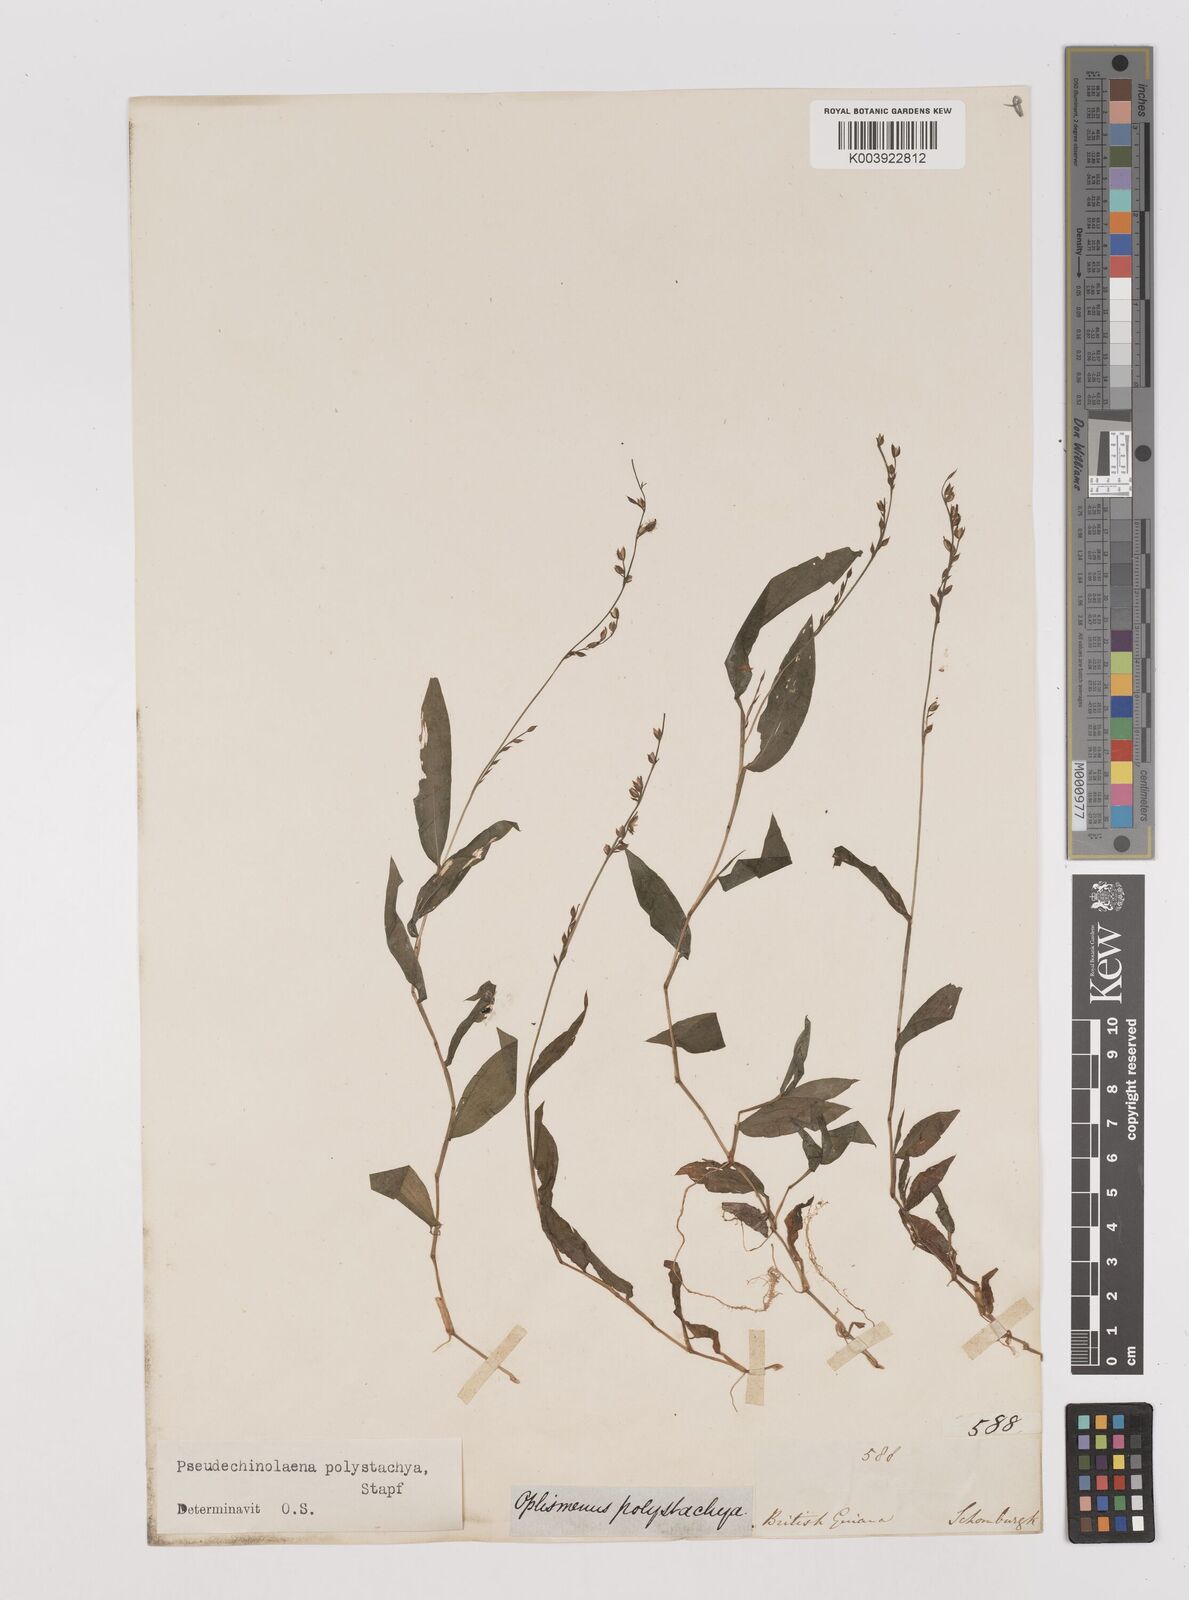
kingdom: Plantae
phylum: Tracheophyta
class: Liliopsida
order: Poales
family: Poaceae
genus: Pseudechinolaena
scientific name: Pseudechinolaena polystachya
